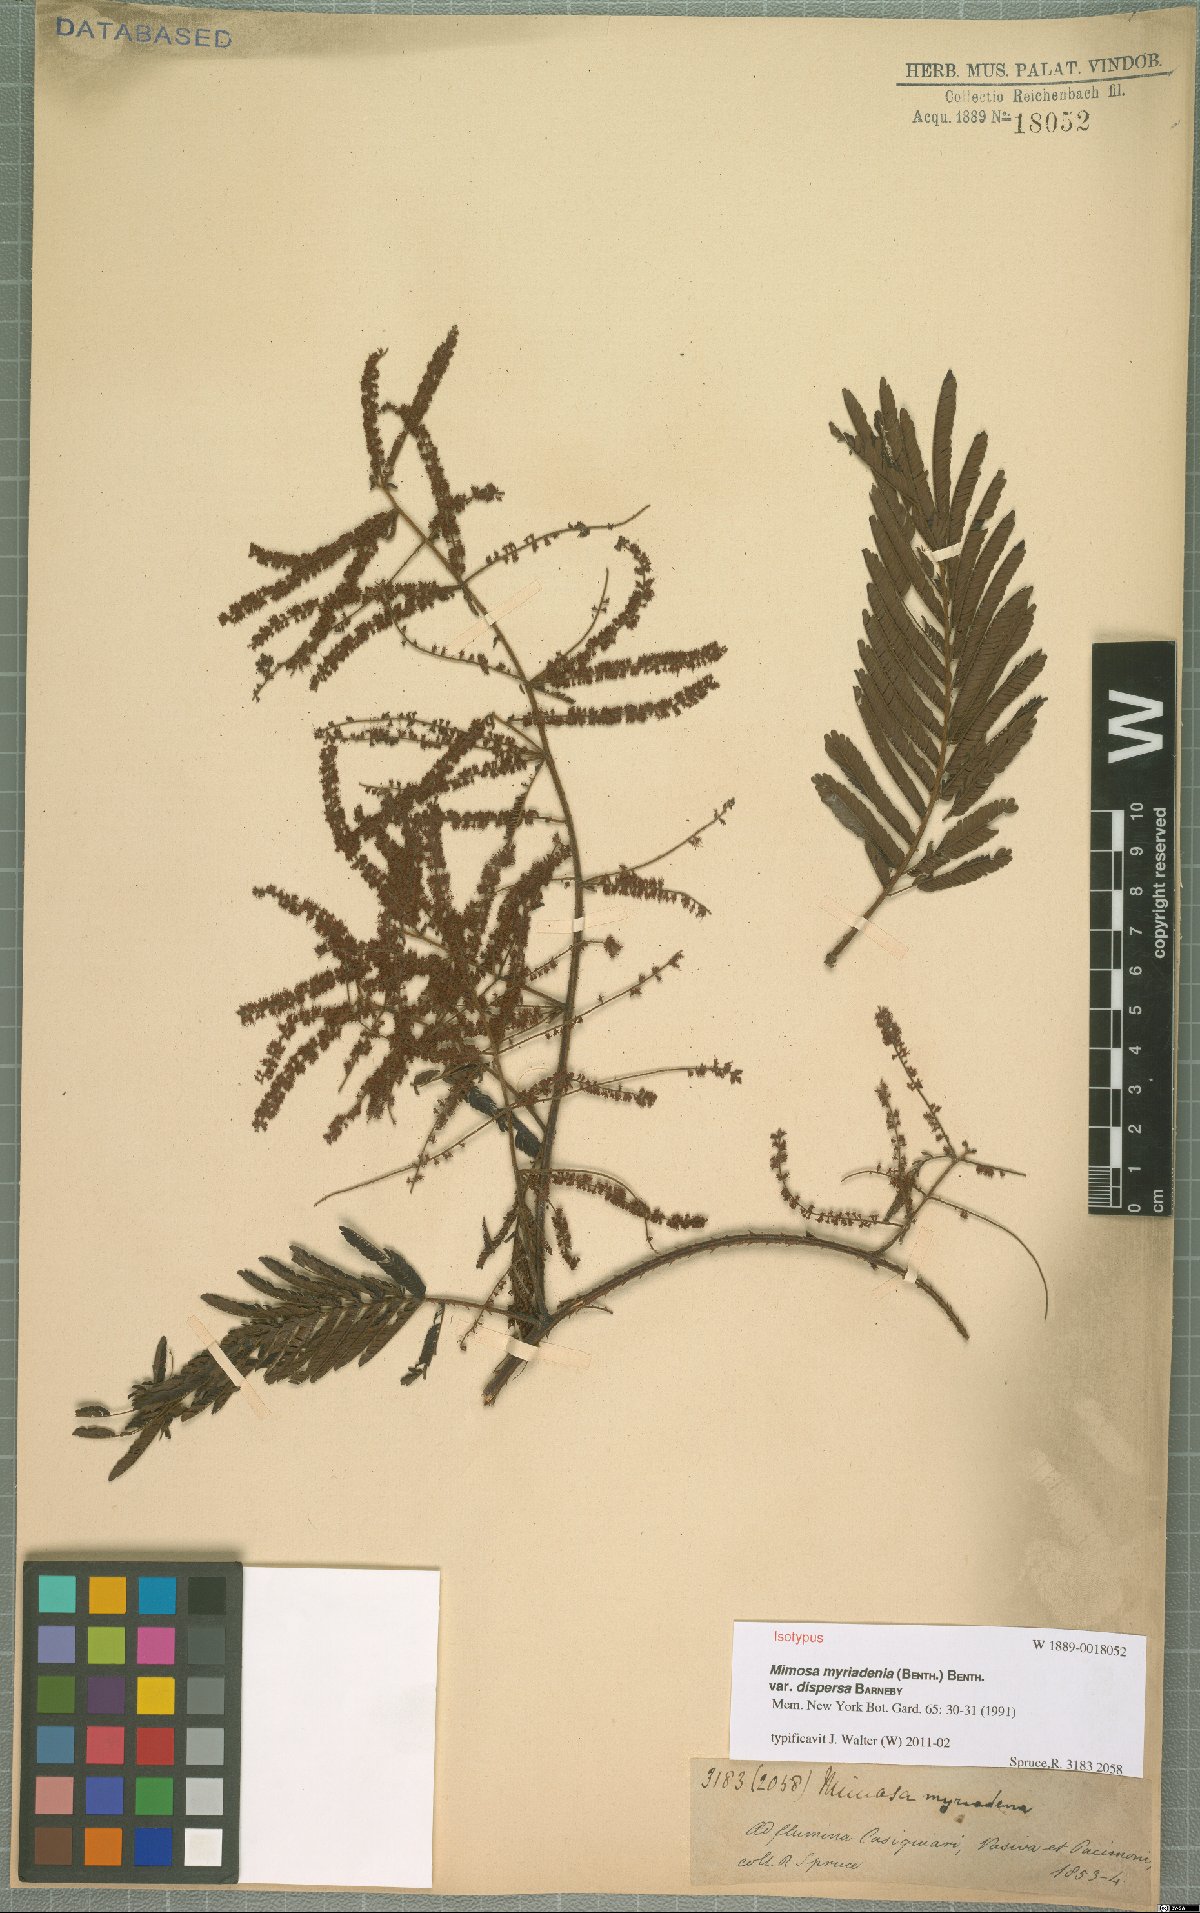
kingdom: Plantae
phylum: Tracheophyta
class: Magnoliopsida
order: Fabales
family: Fabaceae
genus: Mimosa
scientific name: Mimosa myriadenia
